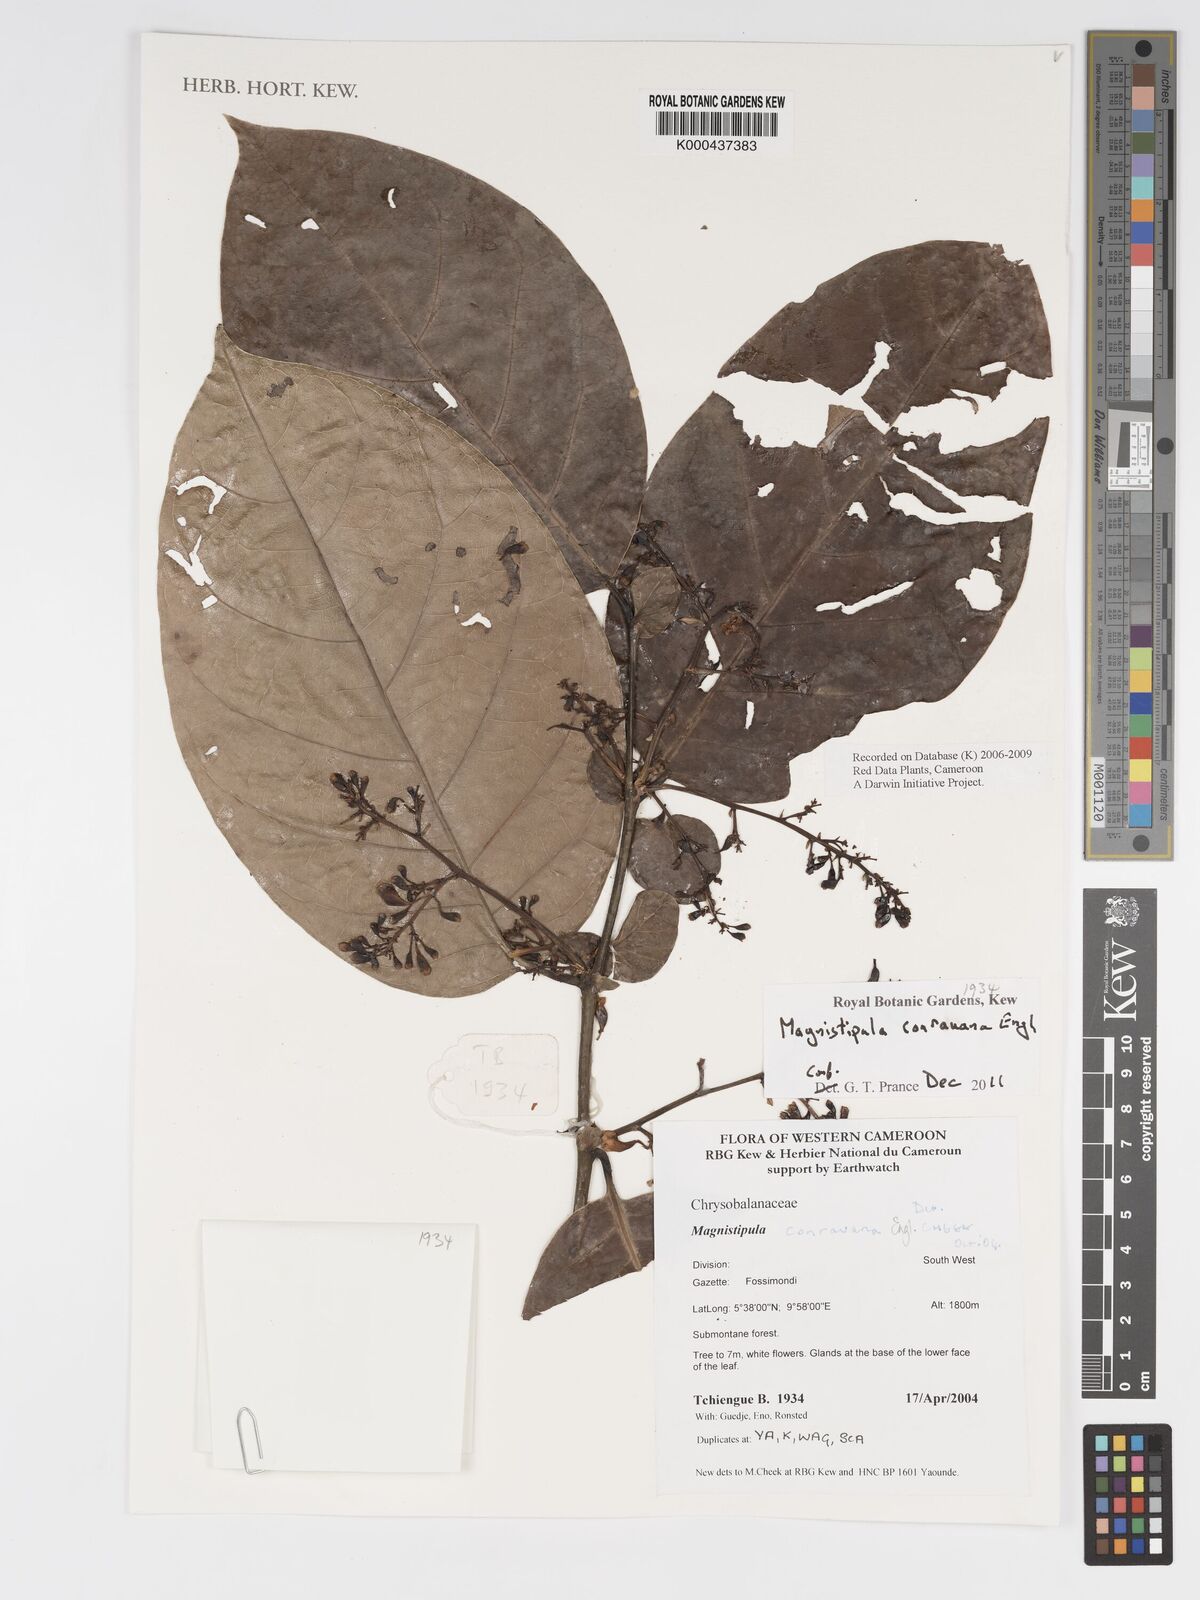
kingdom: Plantae
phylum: Tracheophyta
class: Magnoliopsida
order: Malpighiales
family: Chrysobalanaceae
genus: Magnistipula
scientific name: Magnistipula conrauana
